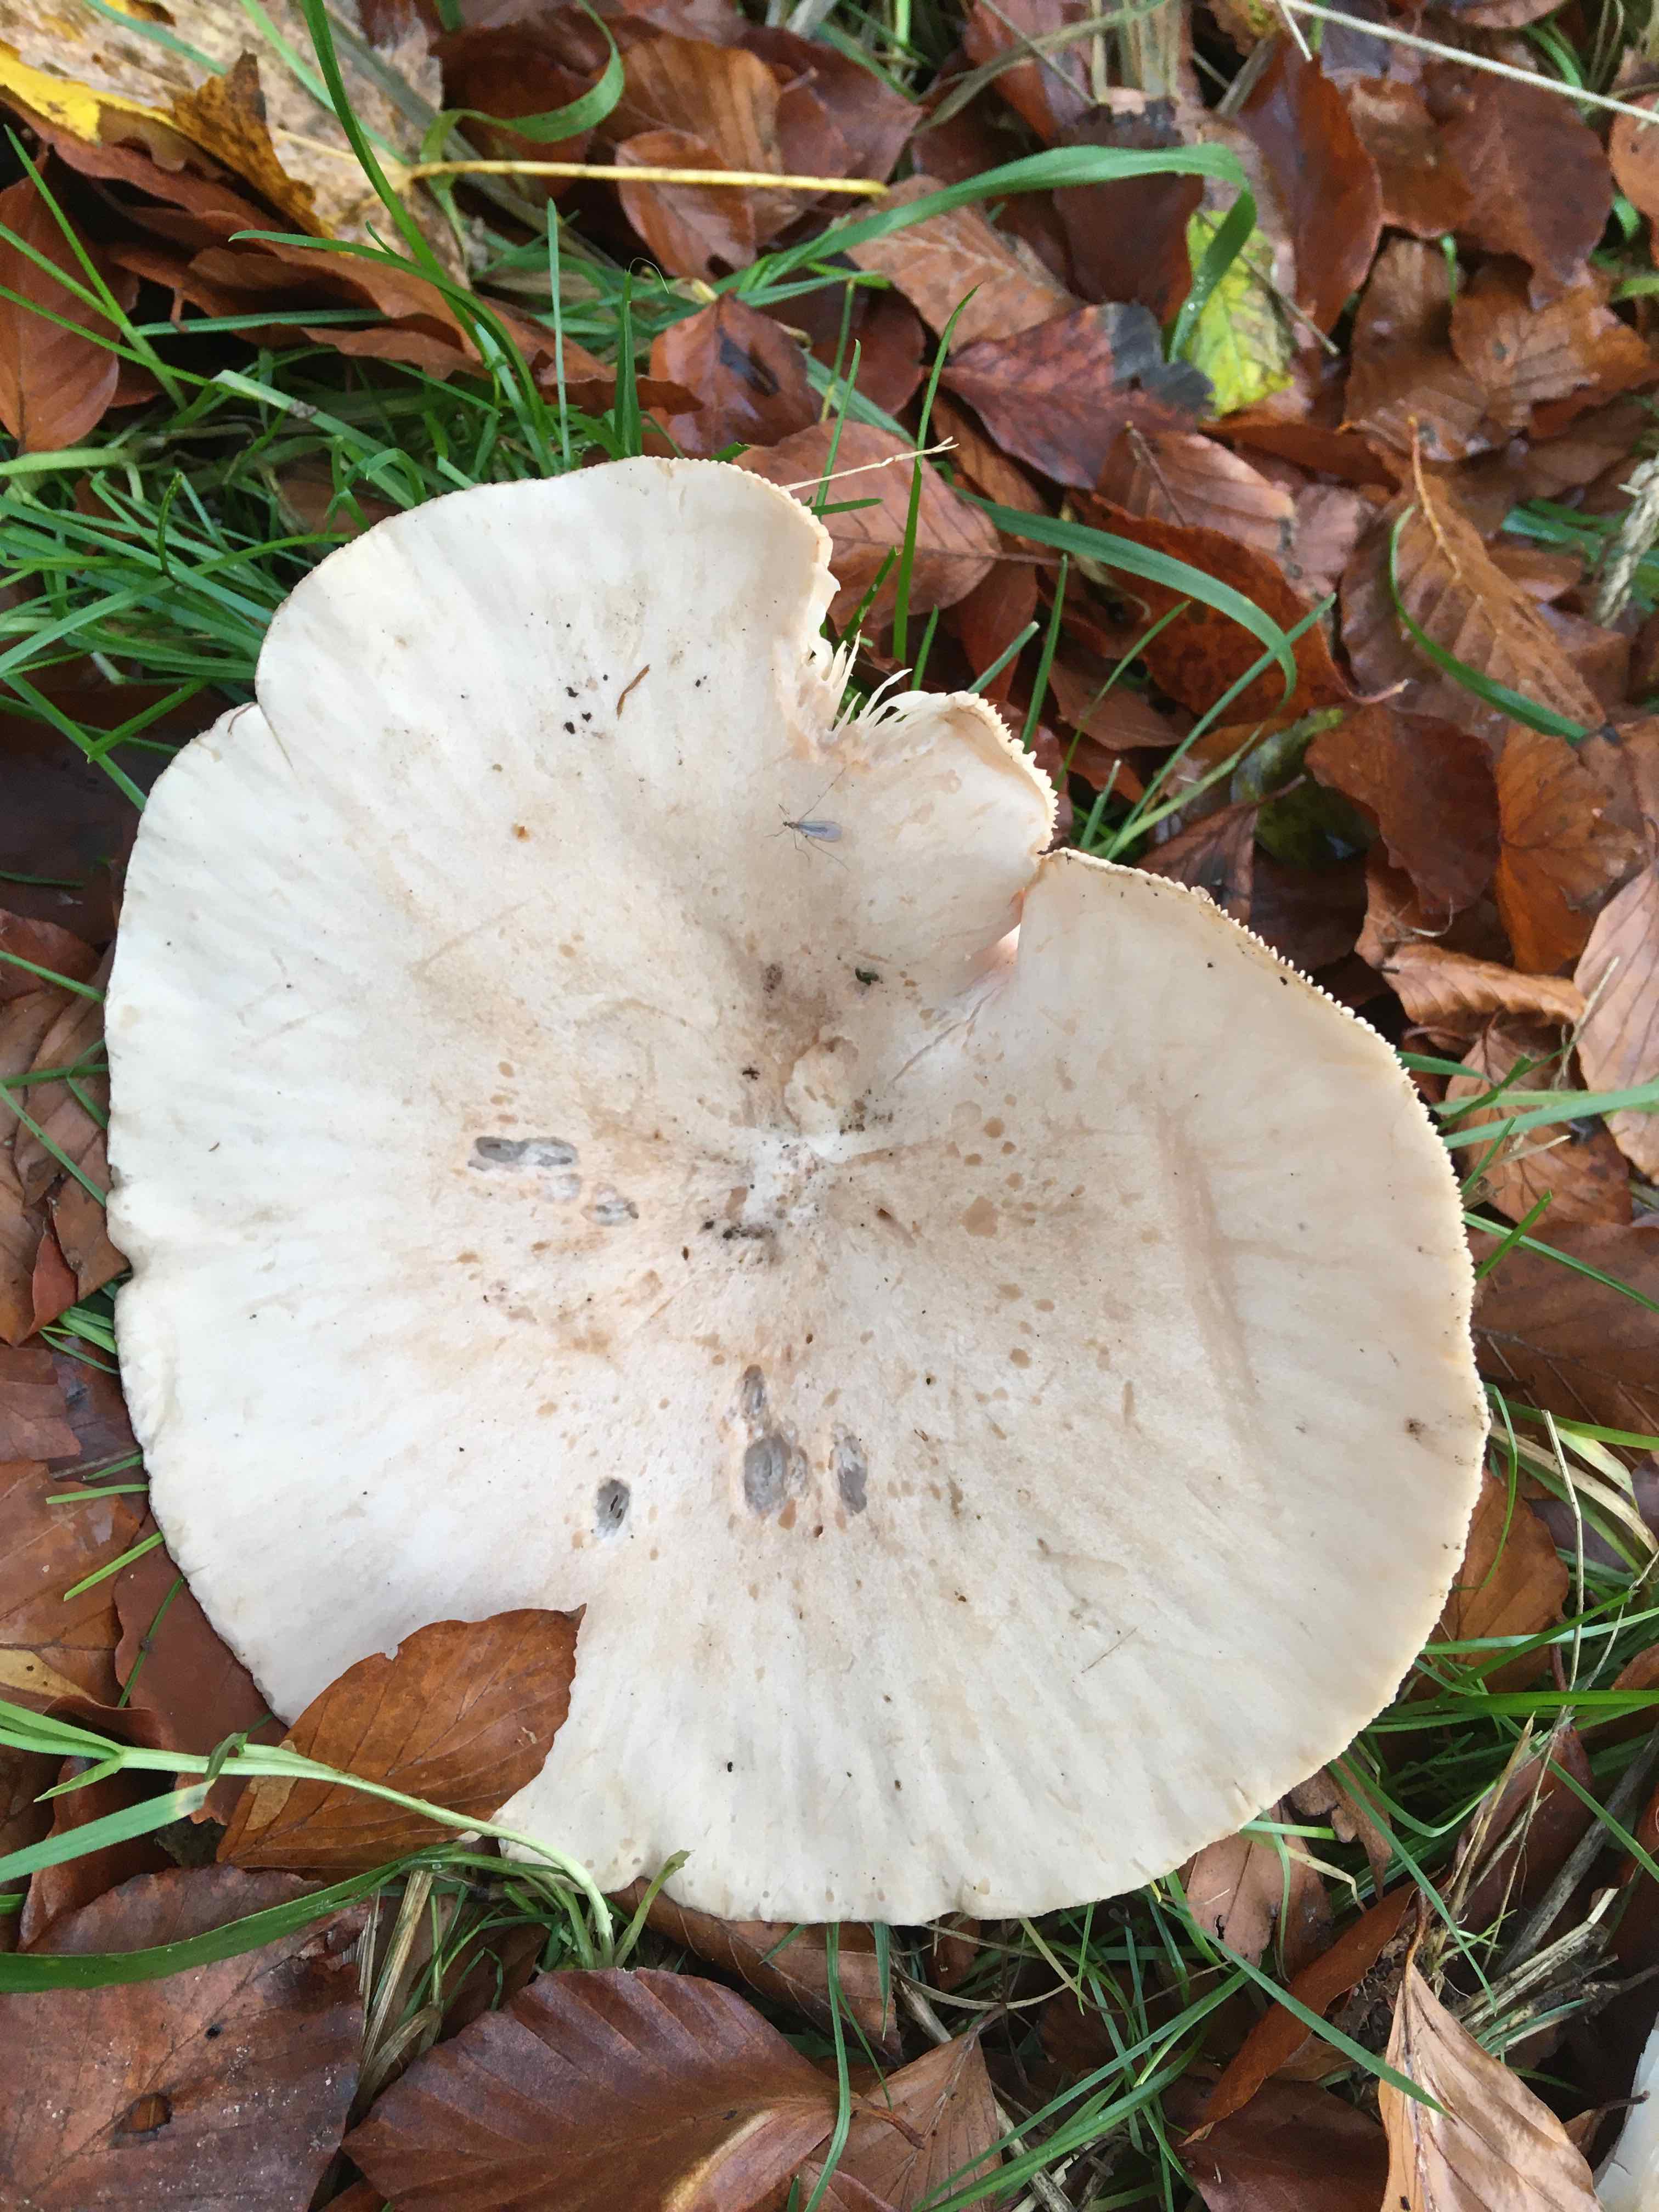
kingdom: Fungi
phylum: Basidiomycota
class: Agaricomycetes
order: Agaricales
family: Tricholomataceae
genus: Infundibulicybe
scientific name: Infundibulicybe geotropa
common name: stor tragthat
